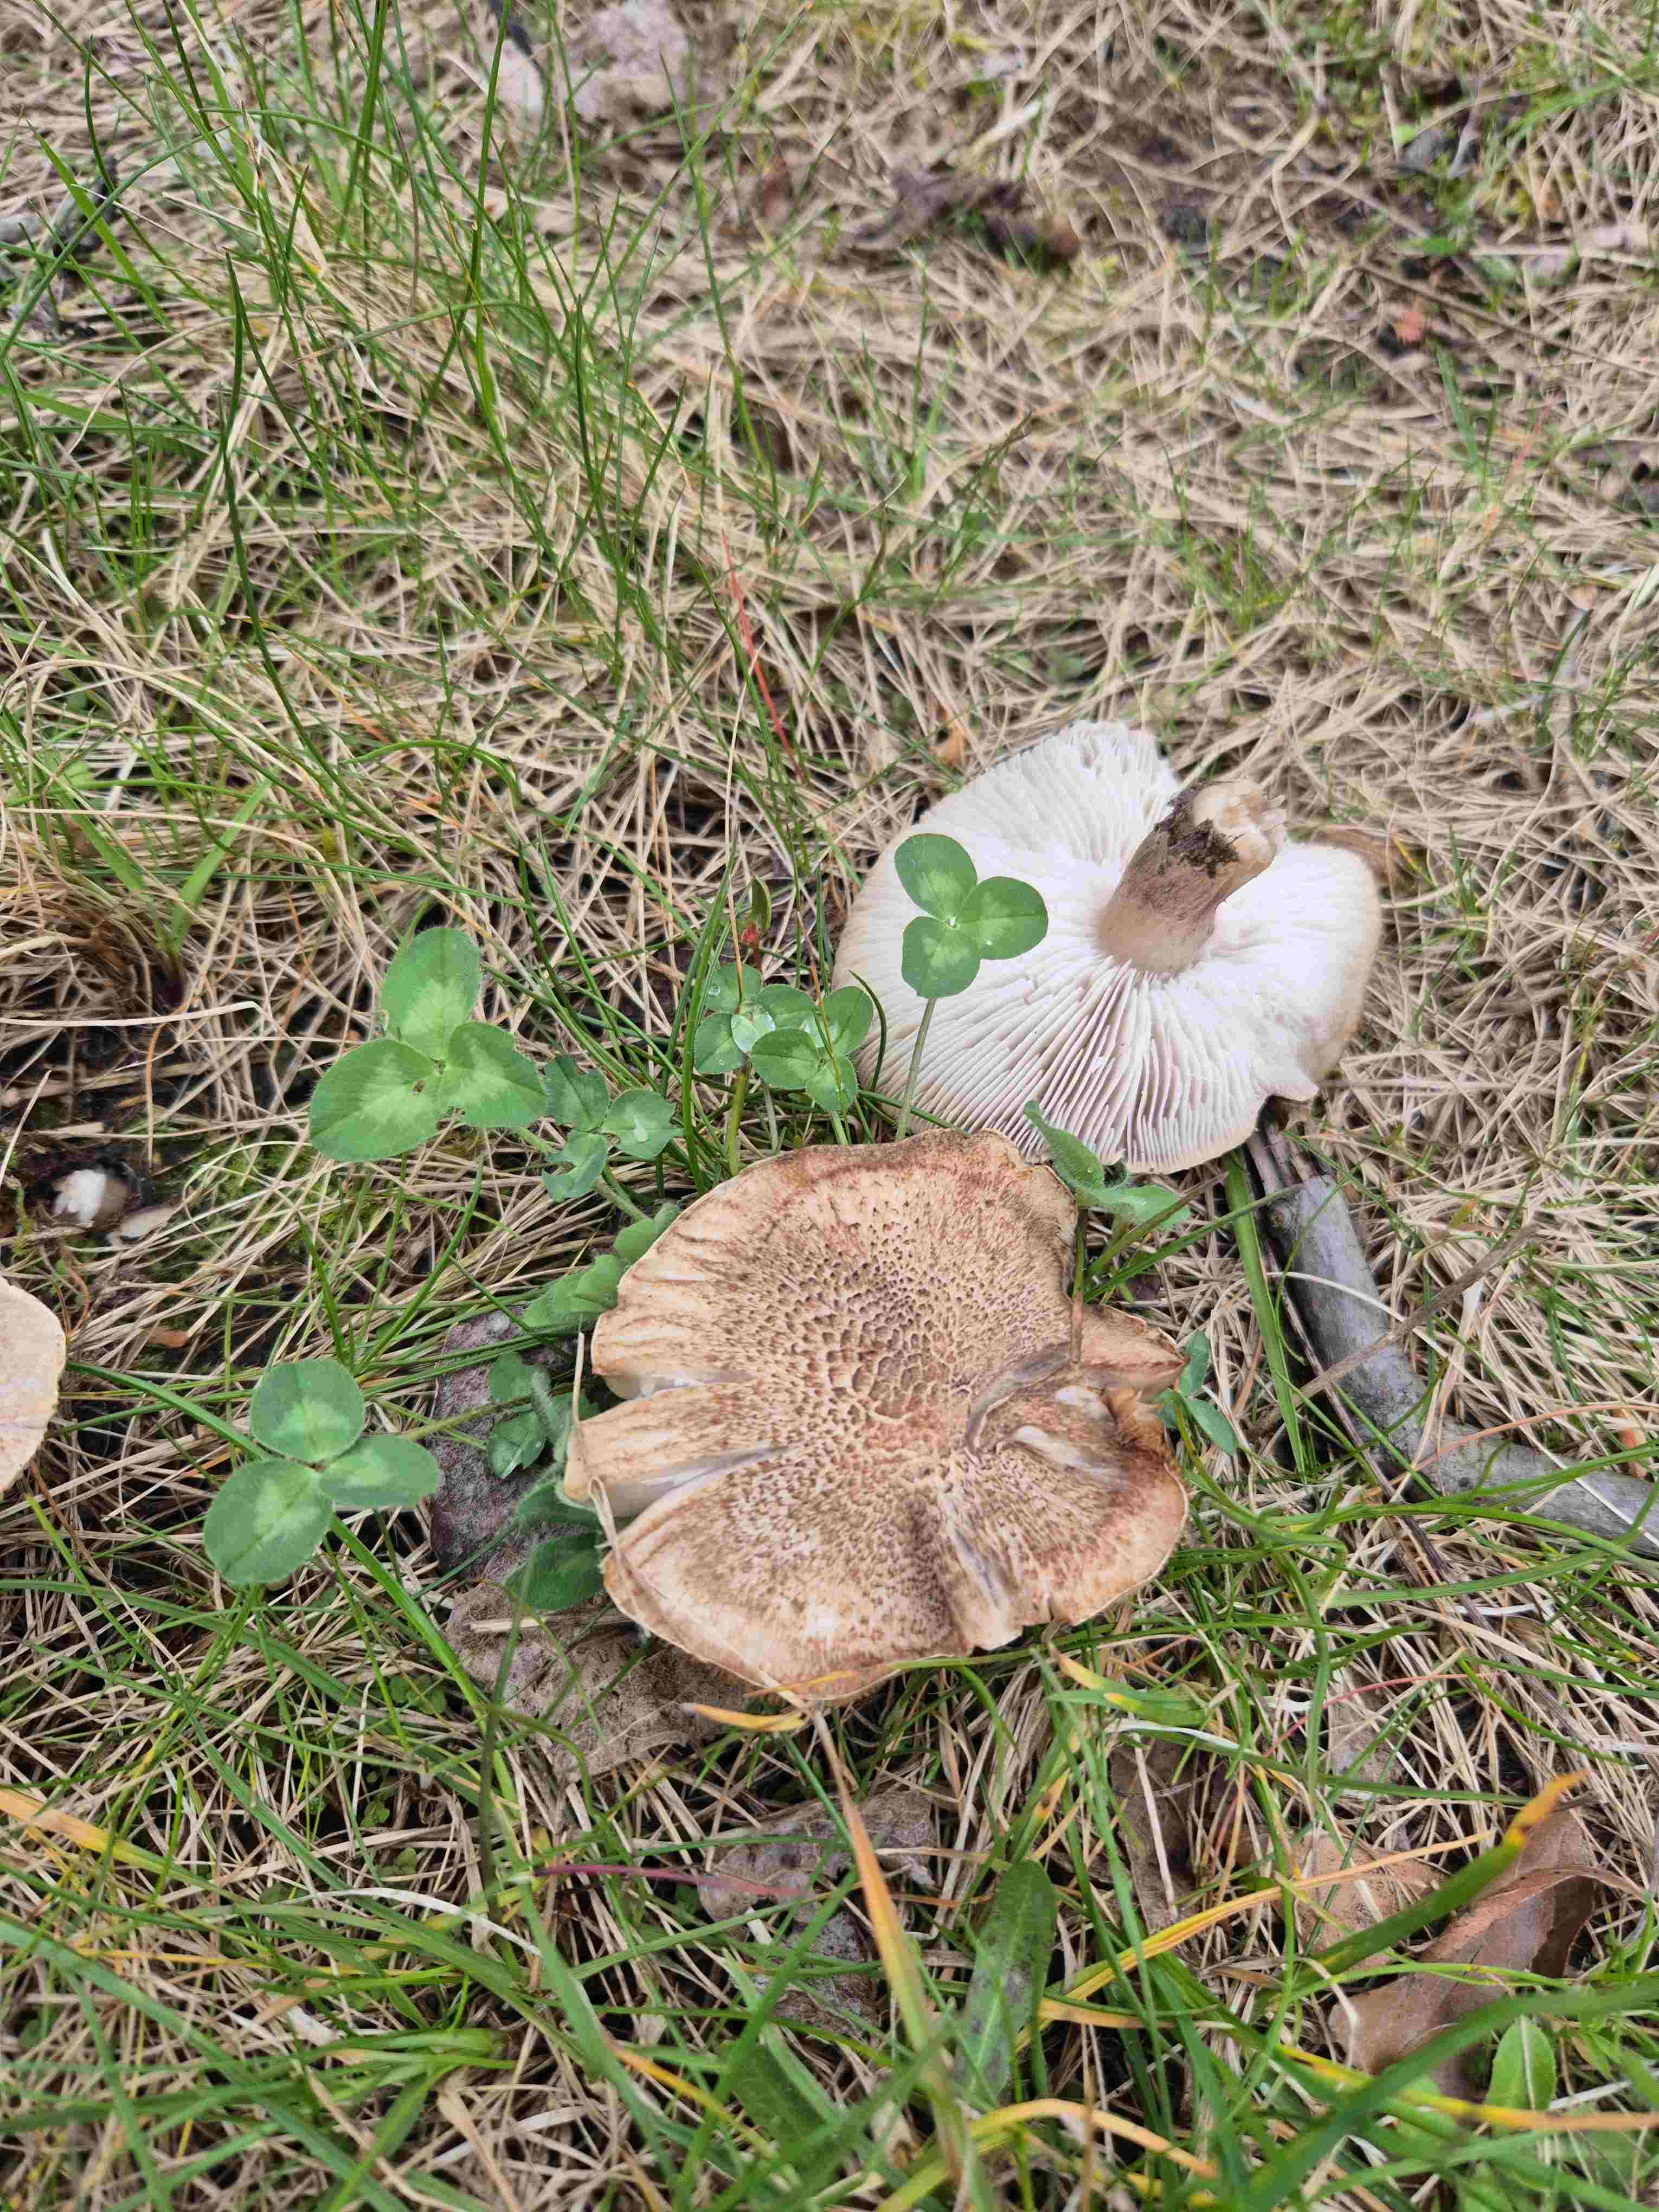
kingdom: Fungi
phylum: Basidiomycota
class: Agaricomycetes
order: Agaricales
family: Tricholomataceae
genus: Tricholoma
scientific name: Tricholoma
